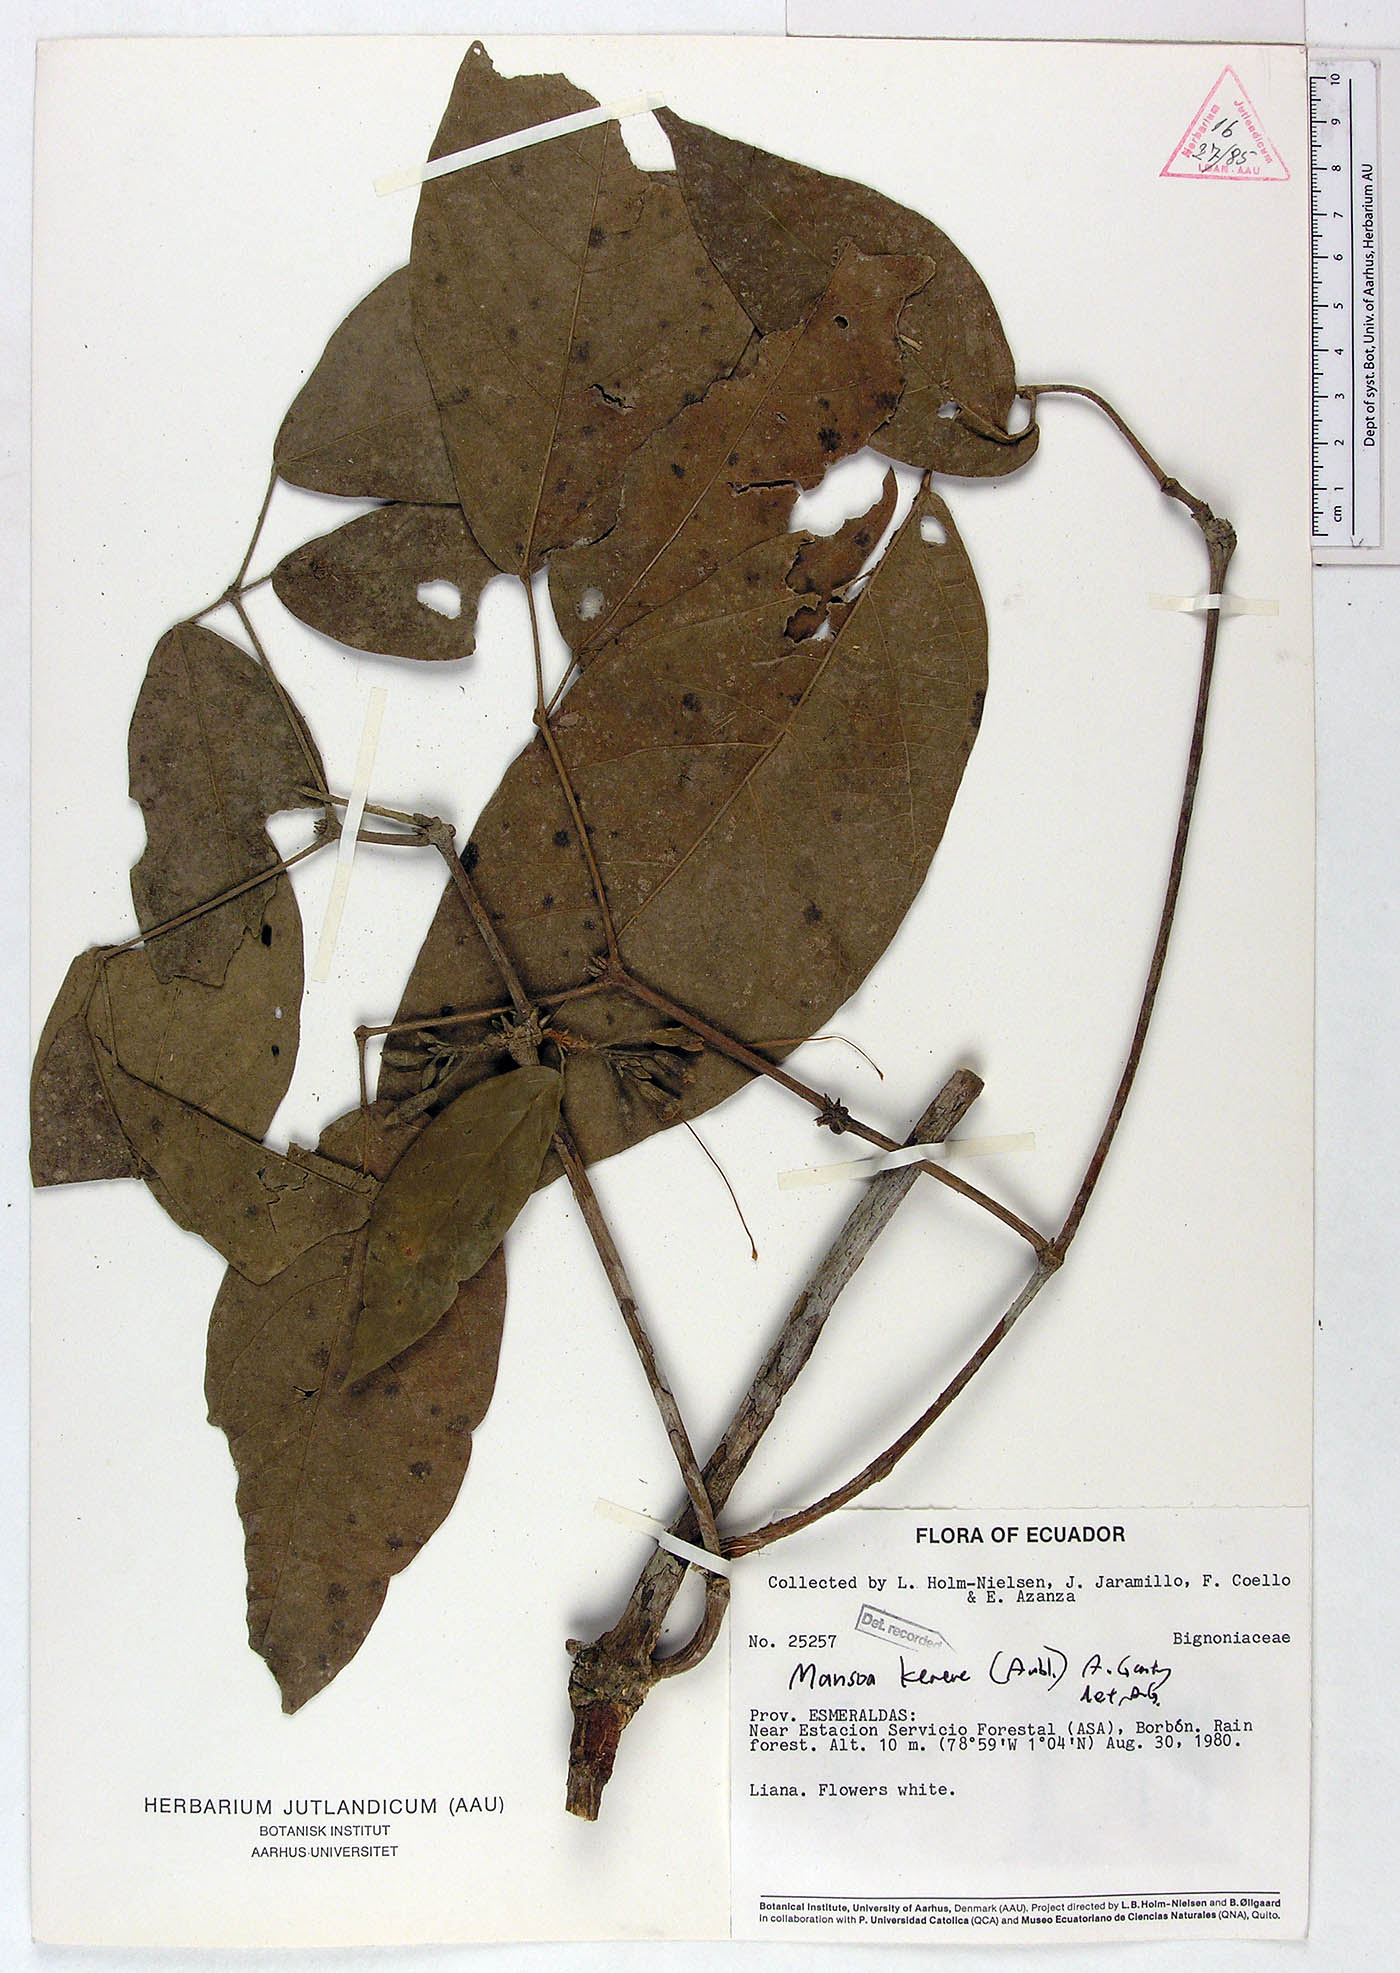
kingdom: Plantae
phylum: Tracheophyta
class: Magnoliopsida
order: Lamiales
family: Bignoniaceae
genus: Pachyptera
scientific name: Pachyptera kerere
